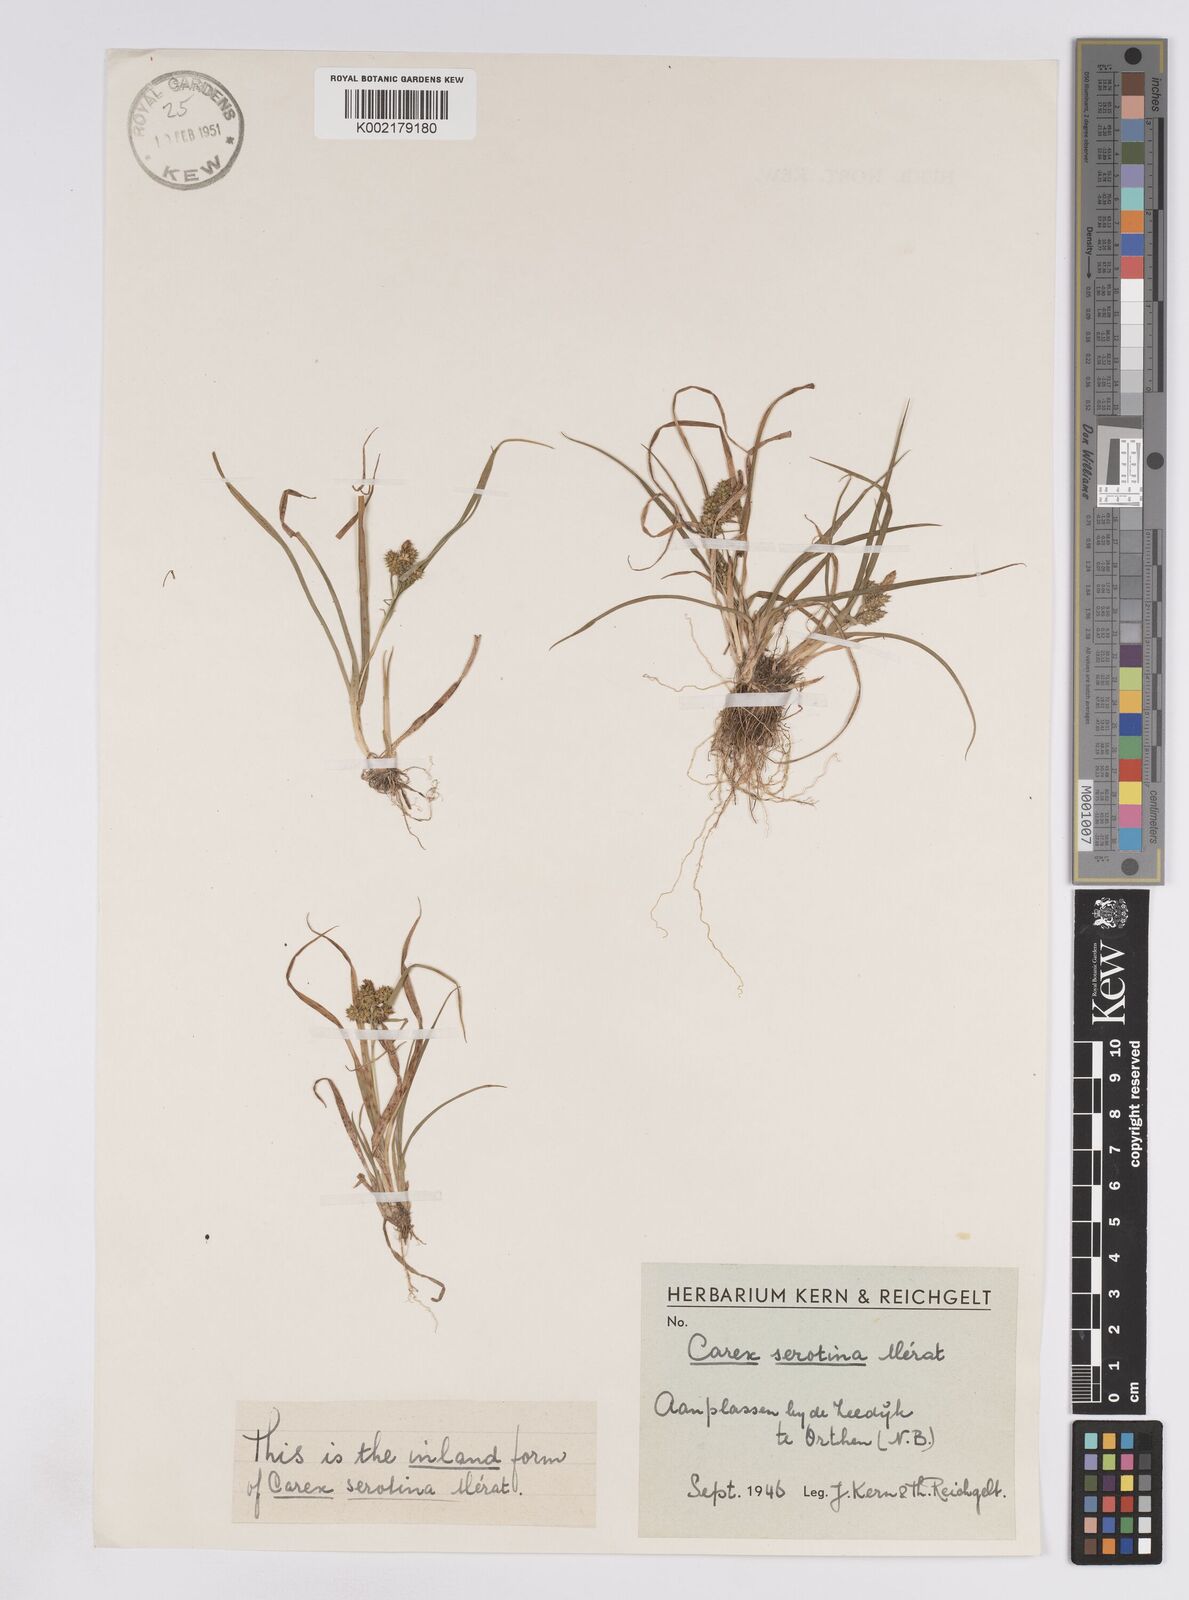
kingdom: Plantae
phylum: Tracheophyta
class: Liliopsida
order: Poales
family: Cyperaceae
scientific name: Cyperaceae
